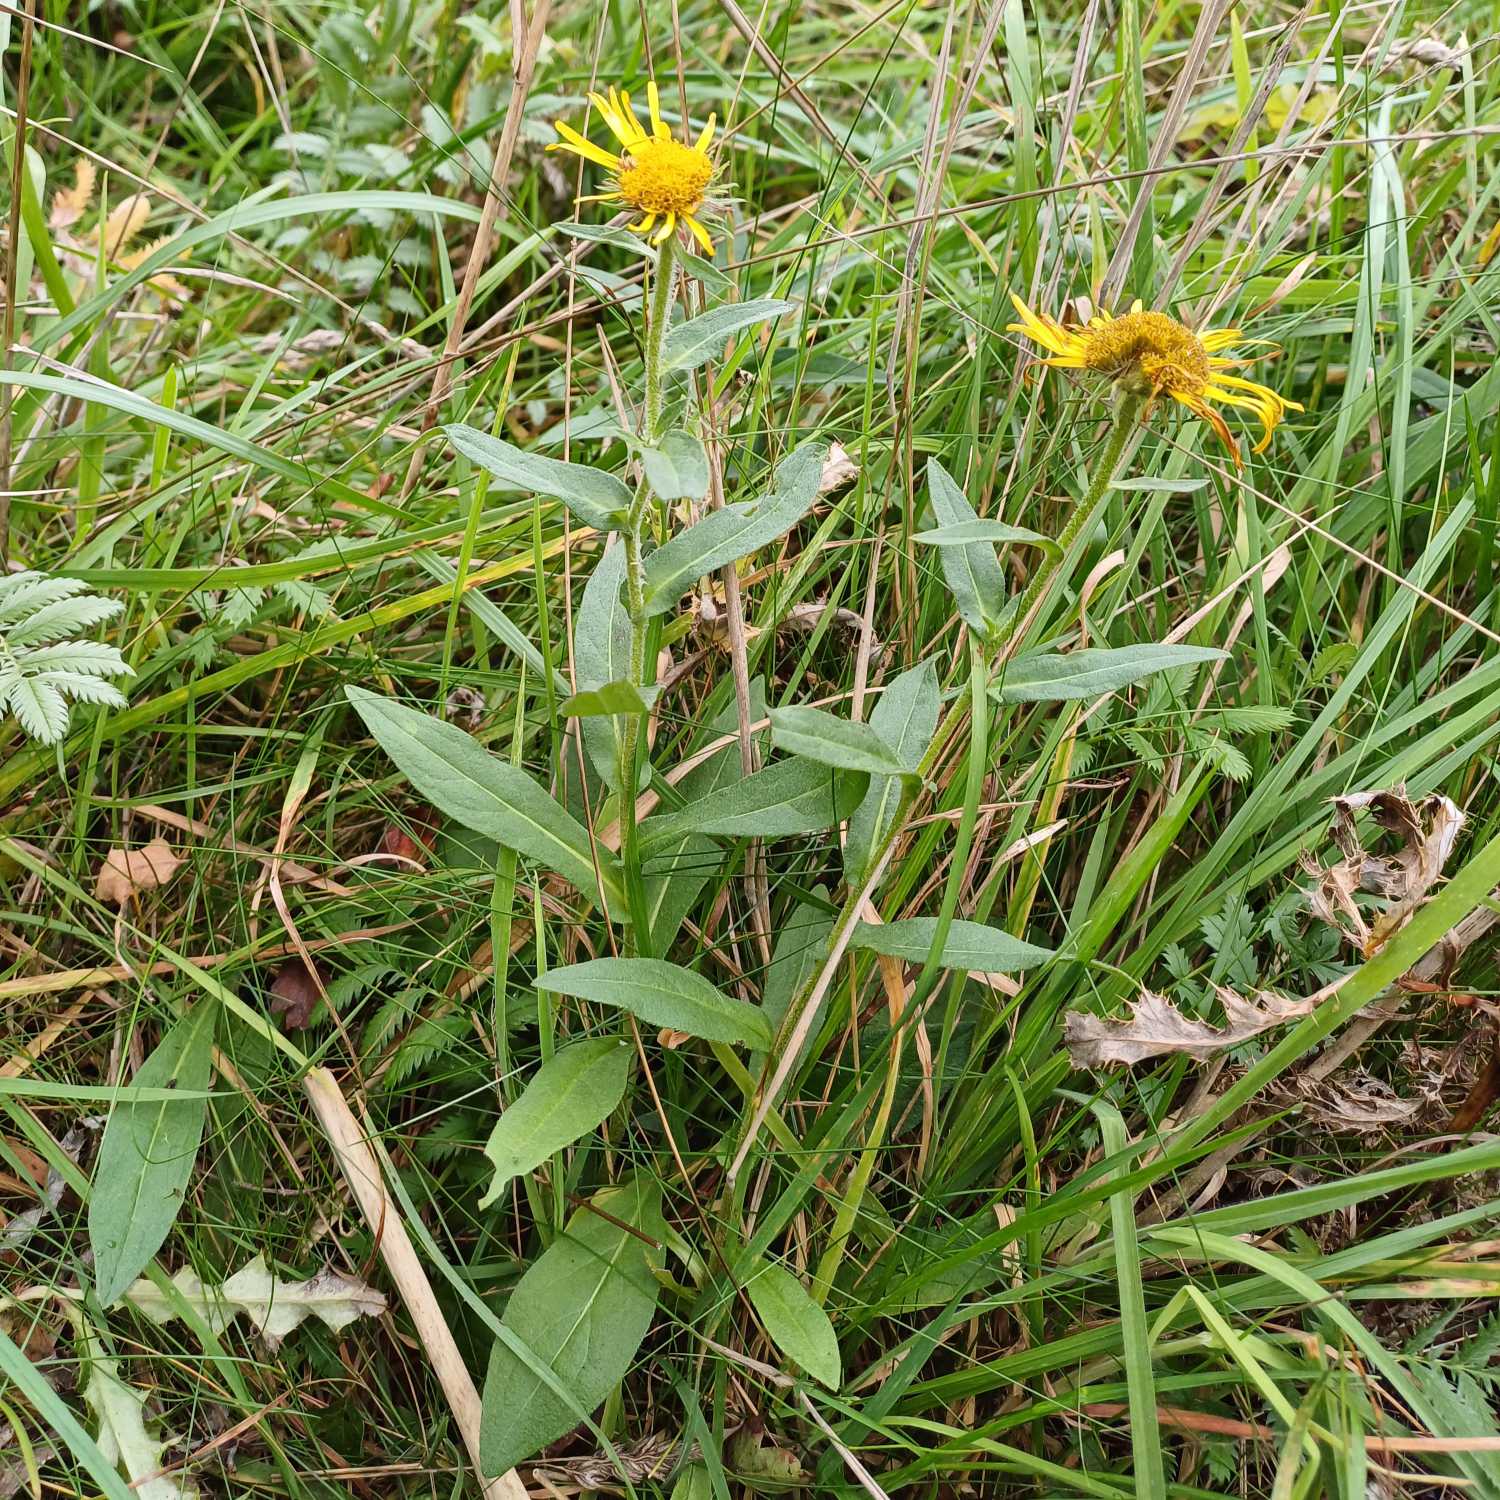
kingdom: Plantae
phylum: Tracheophyta
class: Magnoliopsida
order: Asterales
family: Asteraceae
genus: Pentanema
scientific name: Pentanema britannicum
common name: Soløje-alant
